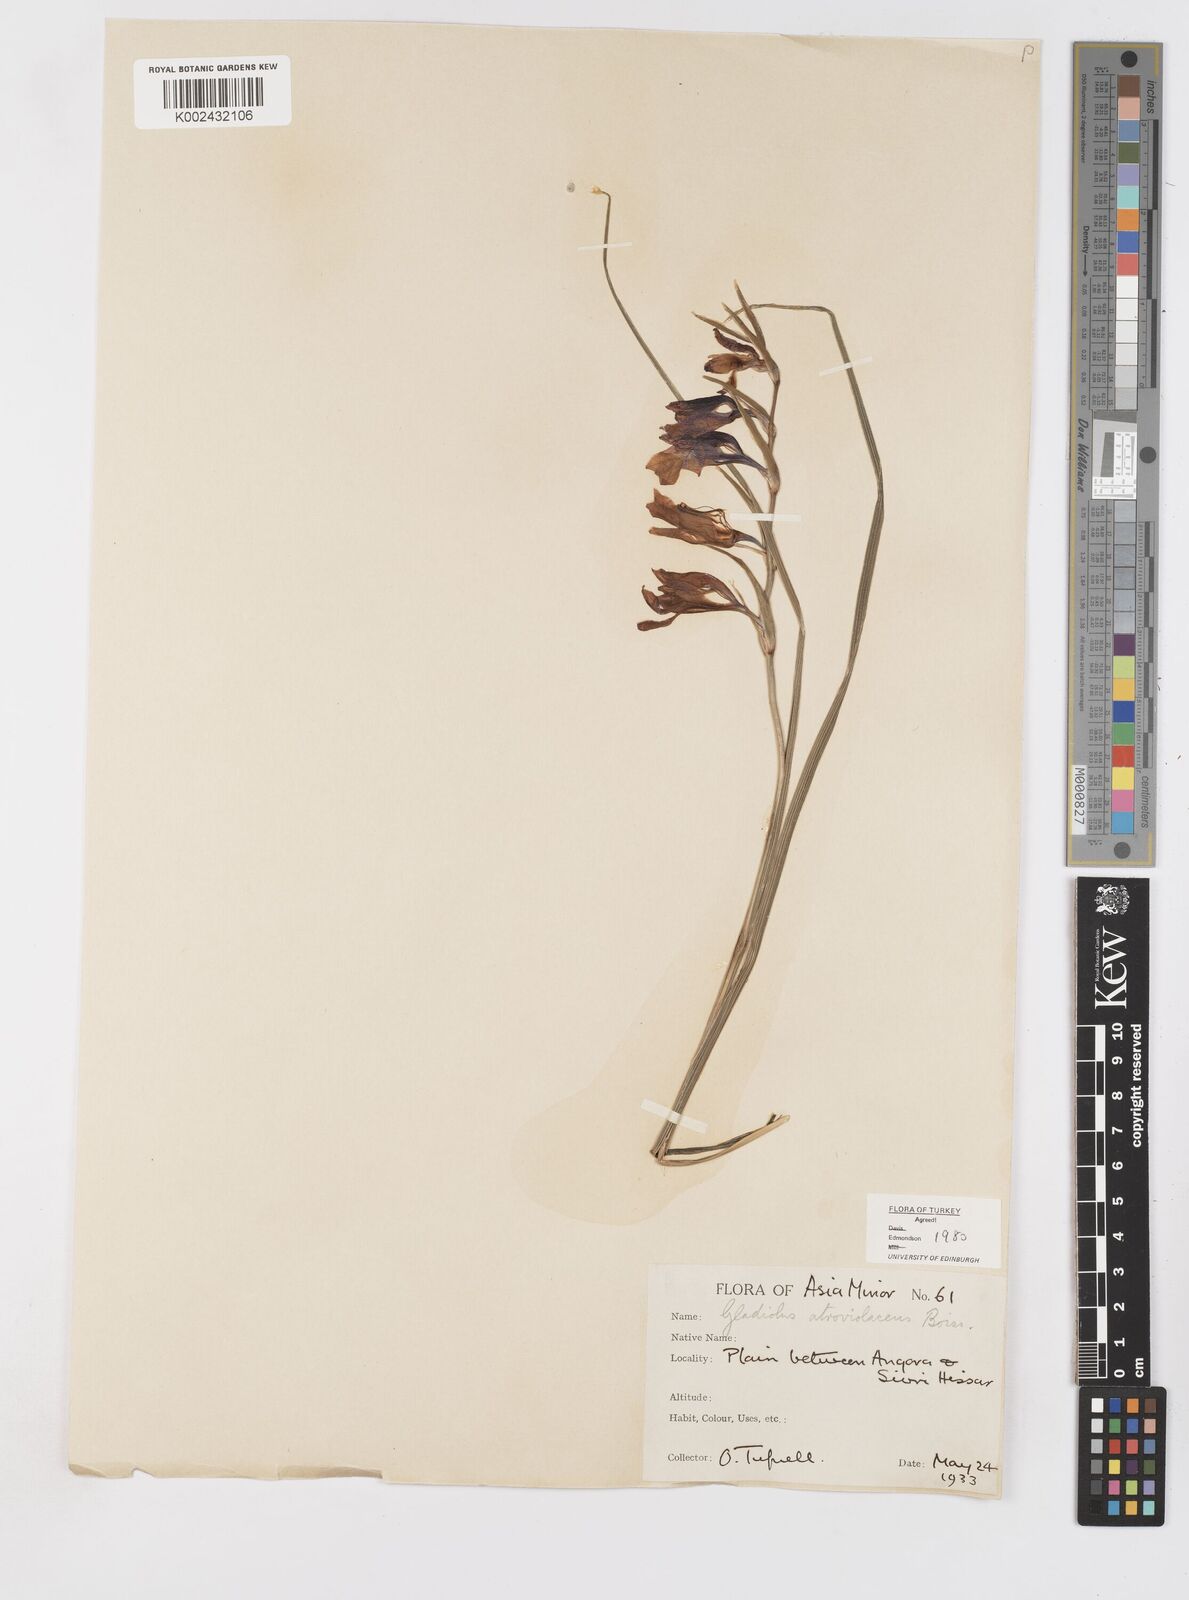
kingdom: Plantae
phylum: Tracheophyta
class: Liliopsida
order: Asparagales
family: Iridaceae
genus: Gladiolus
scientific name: Gladiolus atroviolaceus
